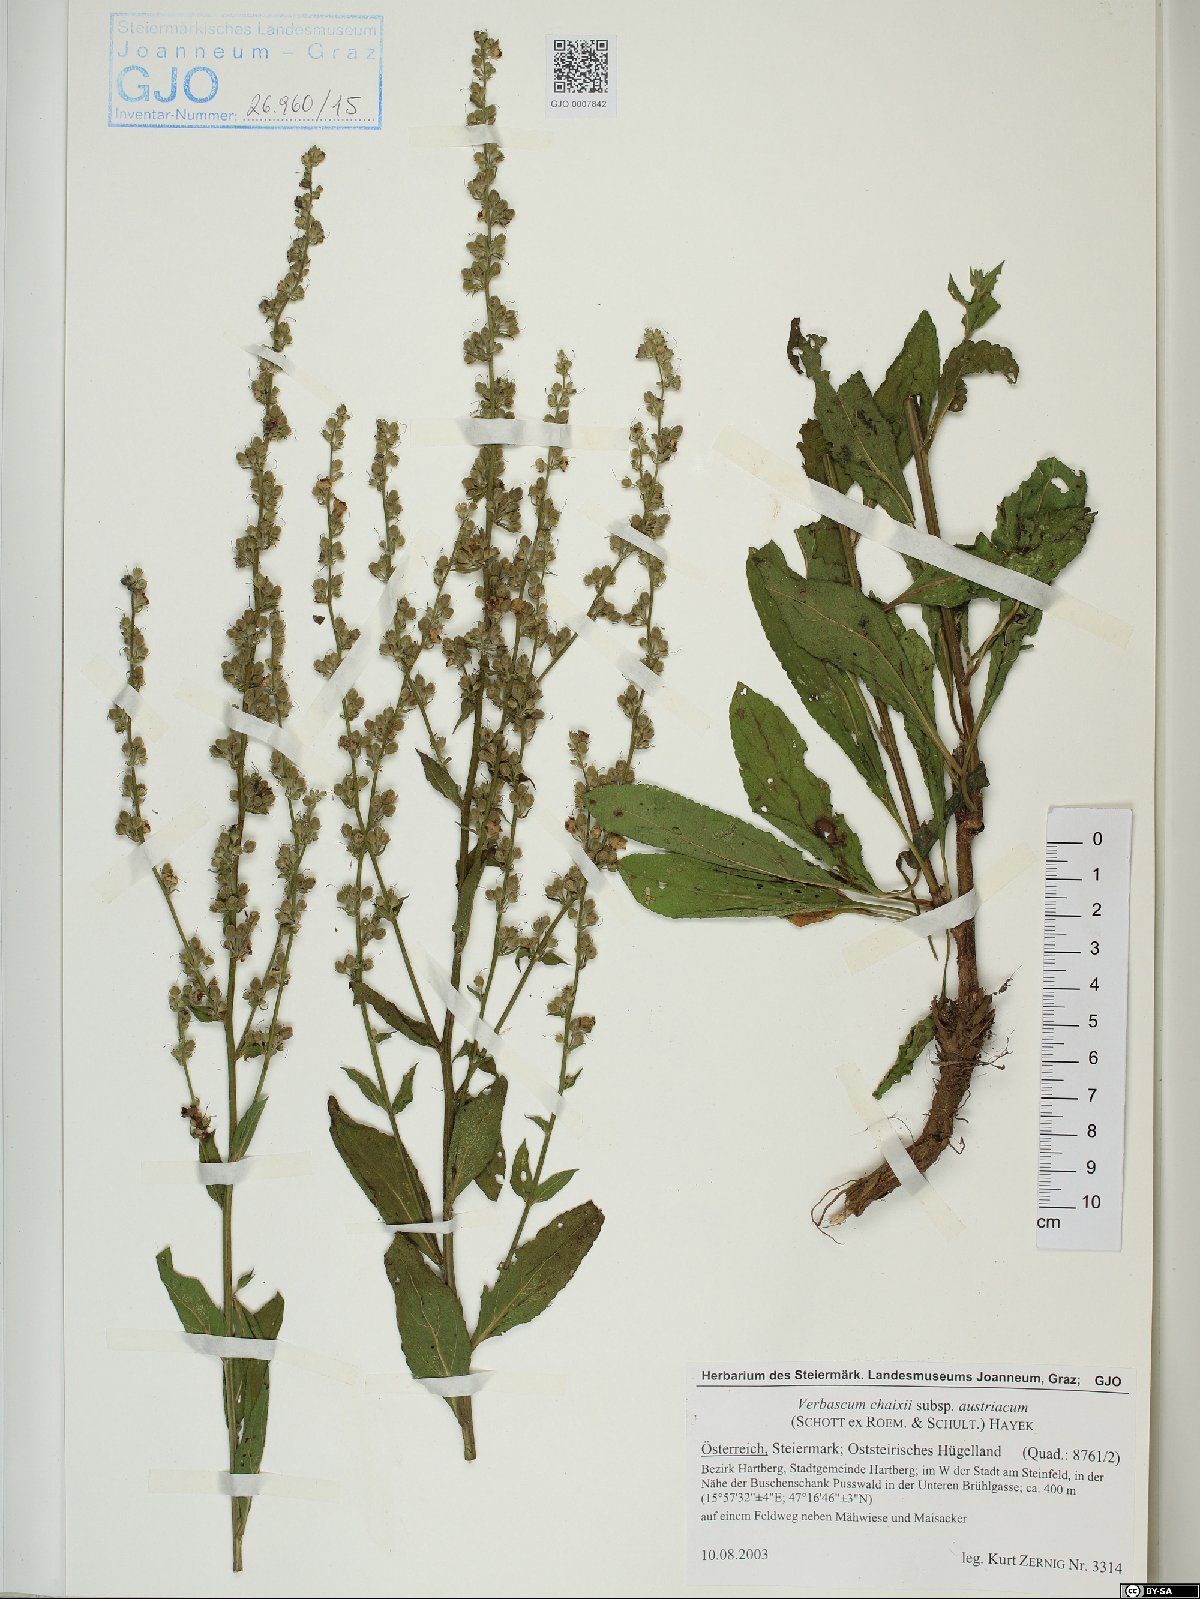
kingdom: Plantae
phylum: Tracheophyta
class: Magnoliopsida
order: Lamiales
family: Scrophulariaceae
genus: Verbascum
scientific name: Verbascum chaixii
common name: Nettle-leaved mullein
